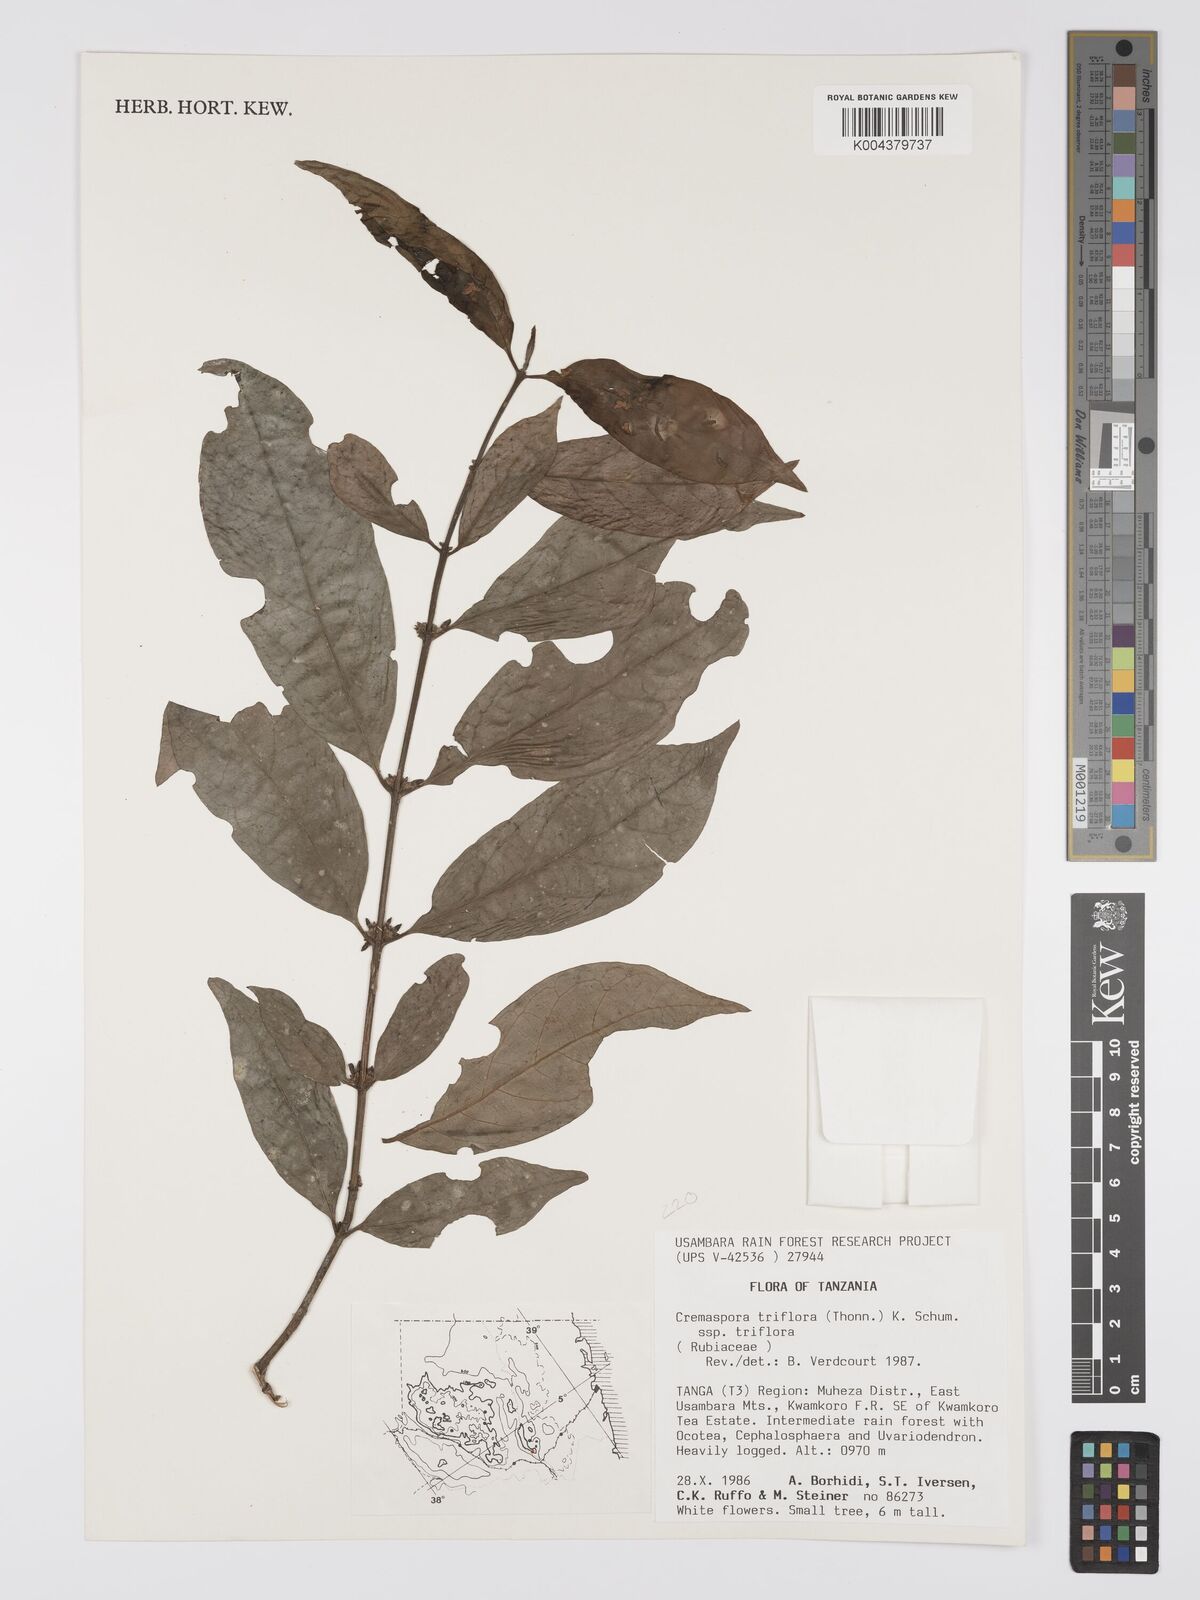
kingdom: Plantae
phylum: Tracheophyta
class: Magnoliopsida
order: Gentianales
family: Rubiaceae
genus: Cremaspora
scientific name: Cremaspora triflora
